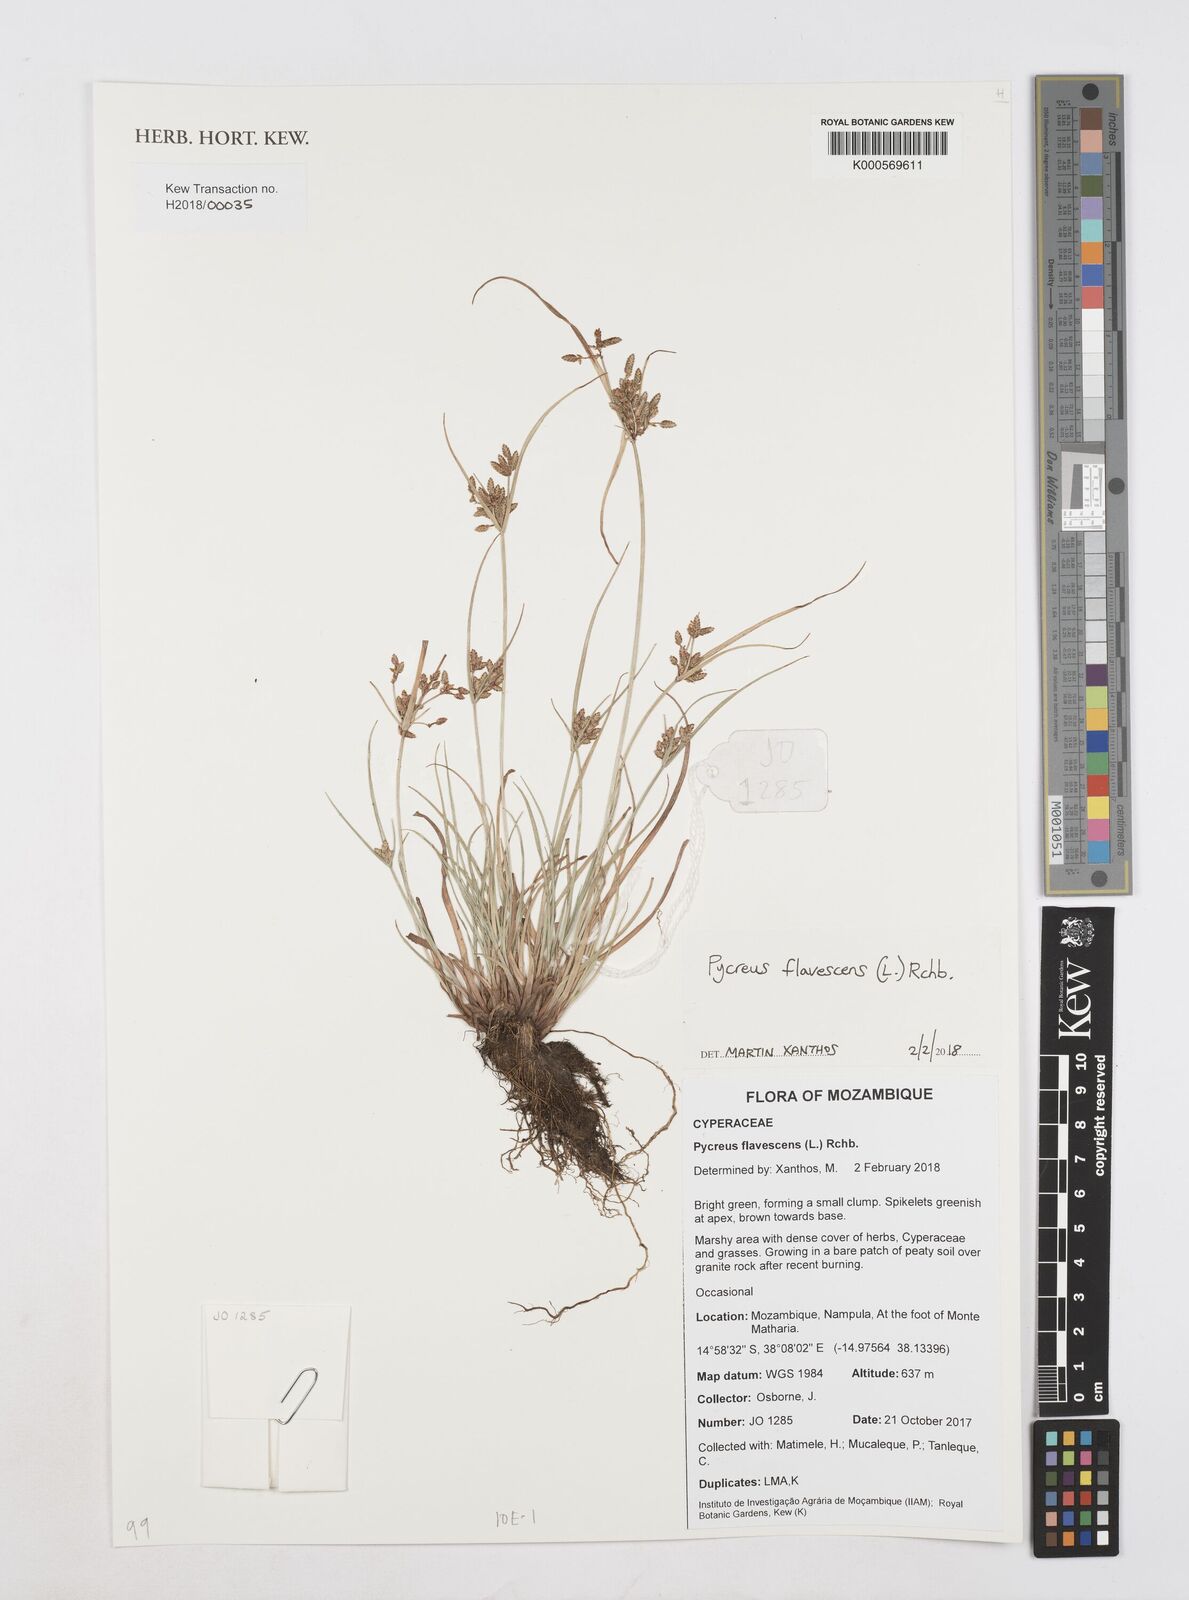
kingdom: Plantae
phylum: Tracheophyta
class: Liliopsida
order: Poales
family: Cyperaceae
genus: Cyperus
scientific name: Cyperus flavescens
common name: Yellow galingale
